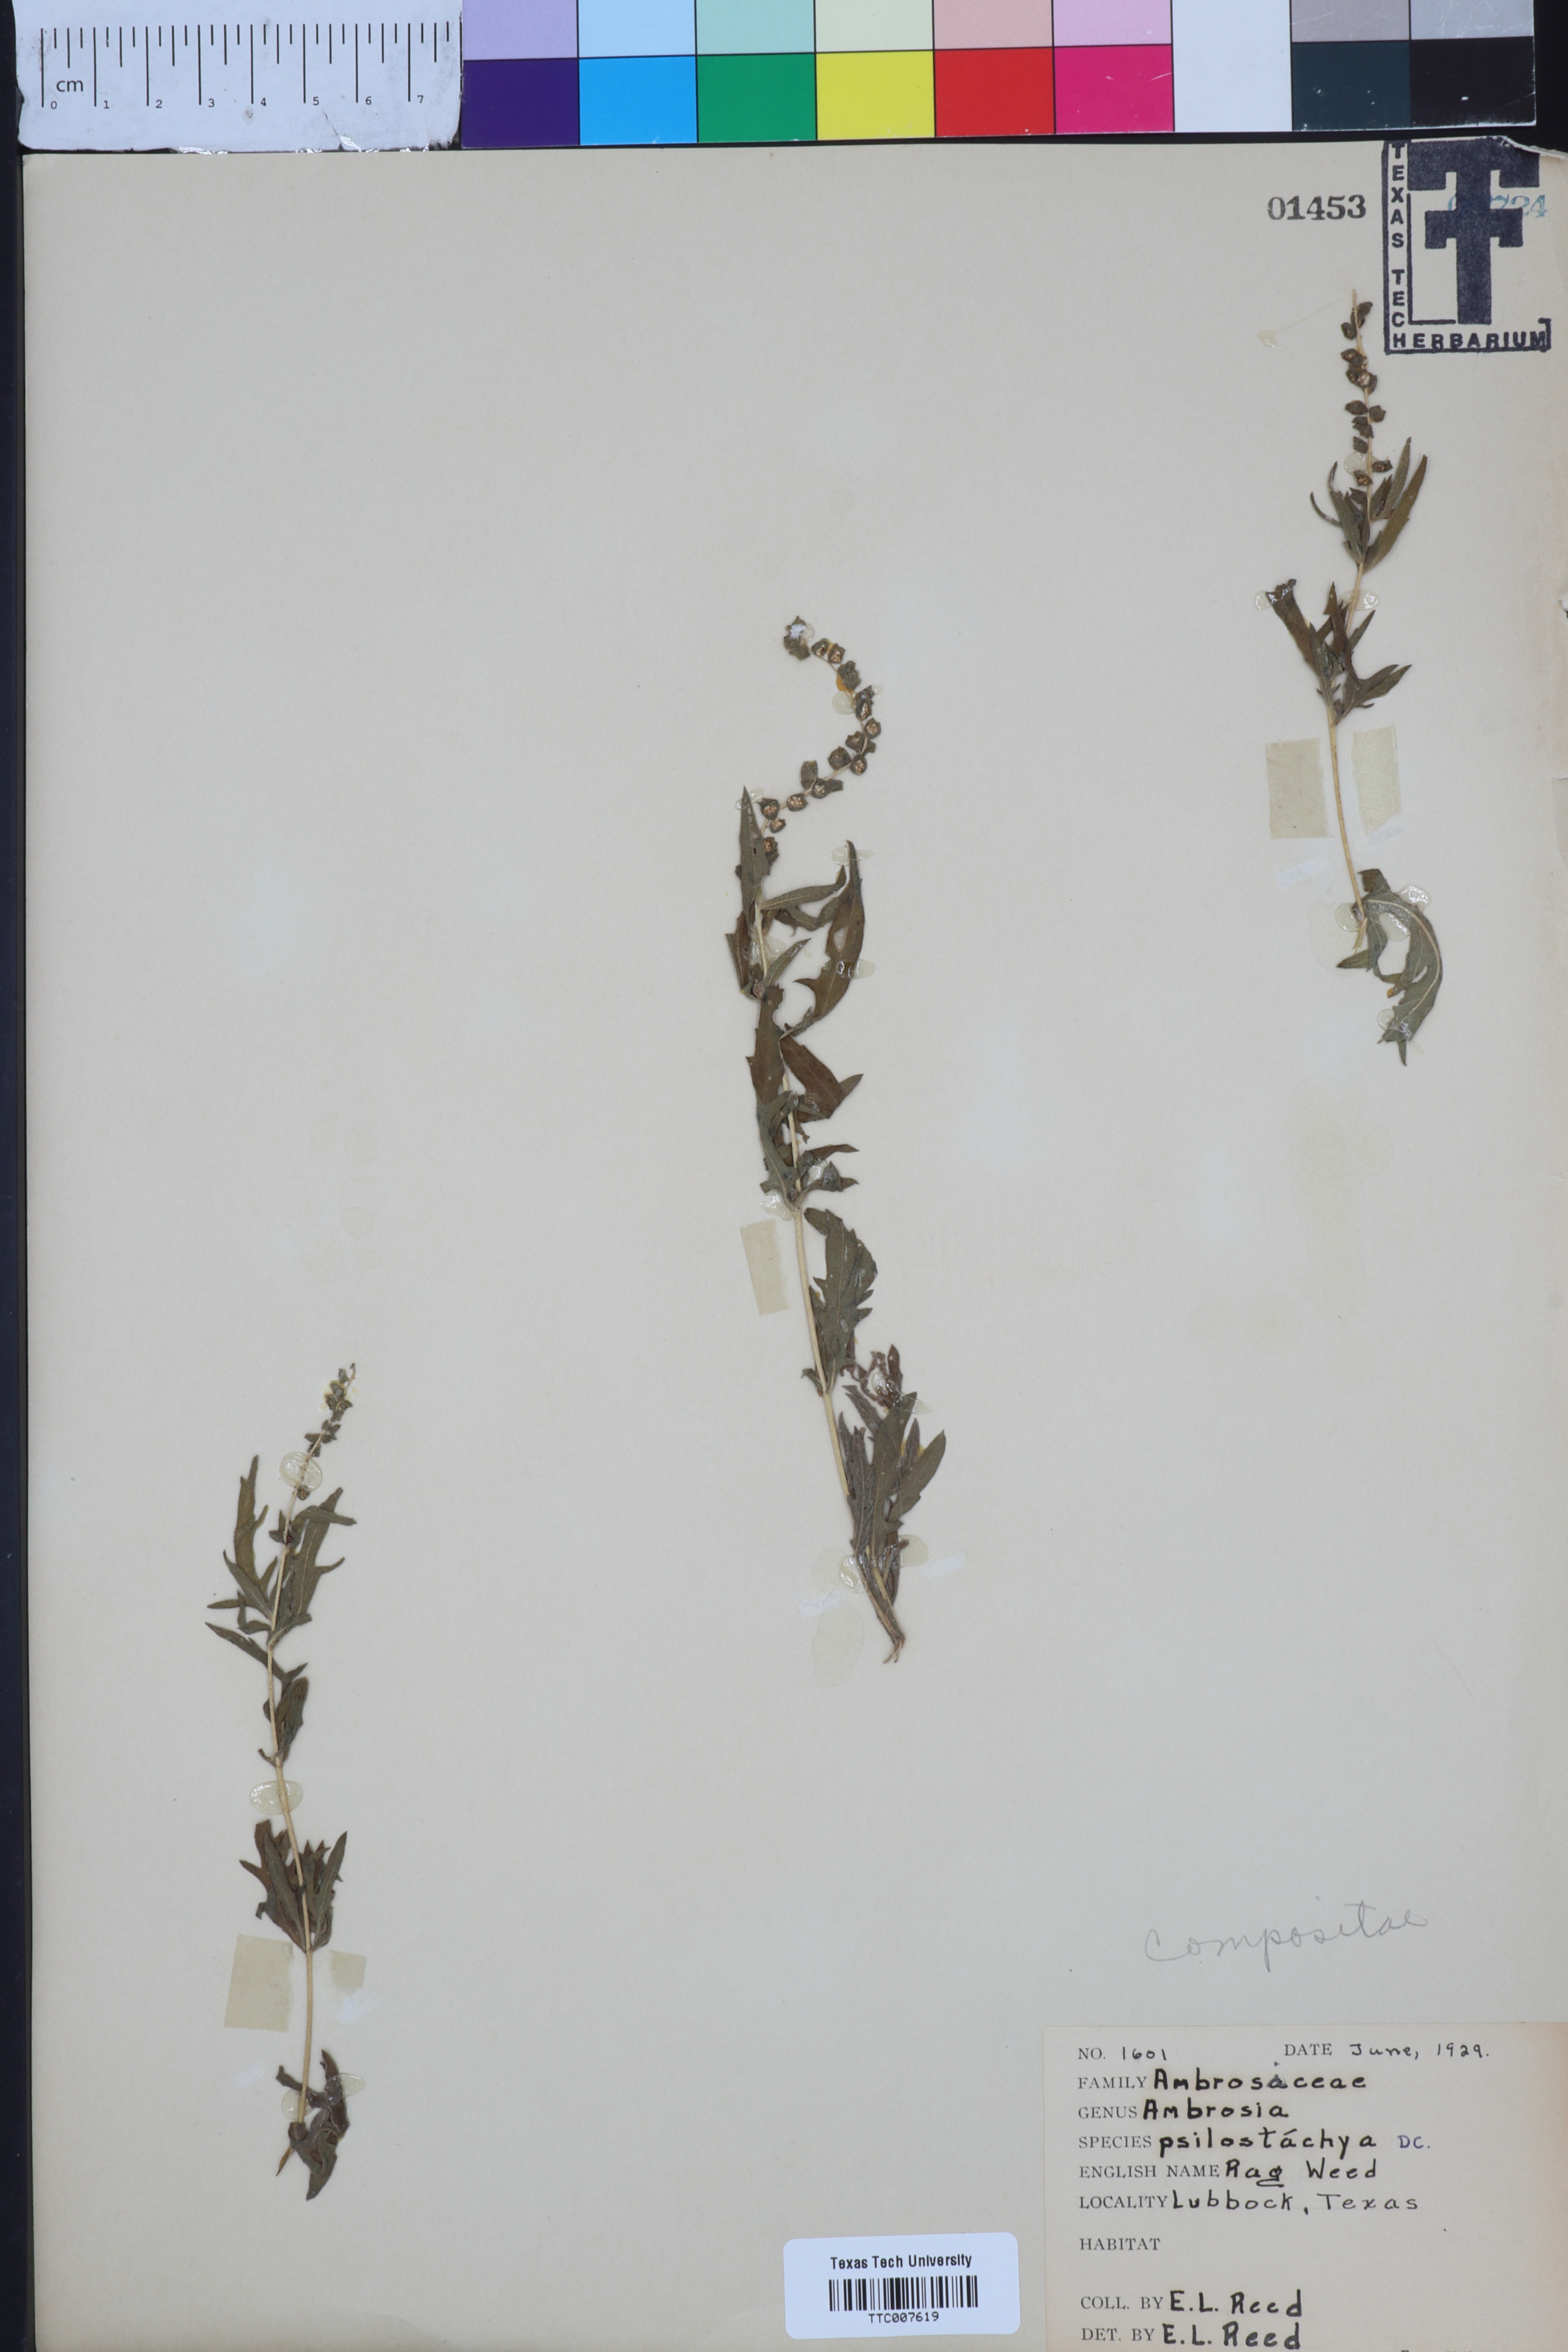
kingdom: Plantae
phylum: Tracheophyta
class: Magnoliopsida
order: Asterales
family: Asteraceae
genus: Ambrosia
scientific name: Ambrosia psilostachya
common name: Perennial ragweed
